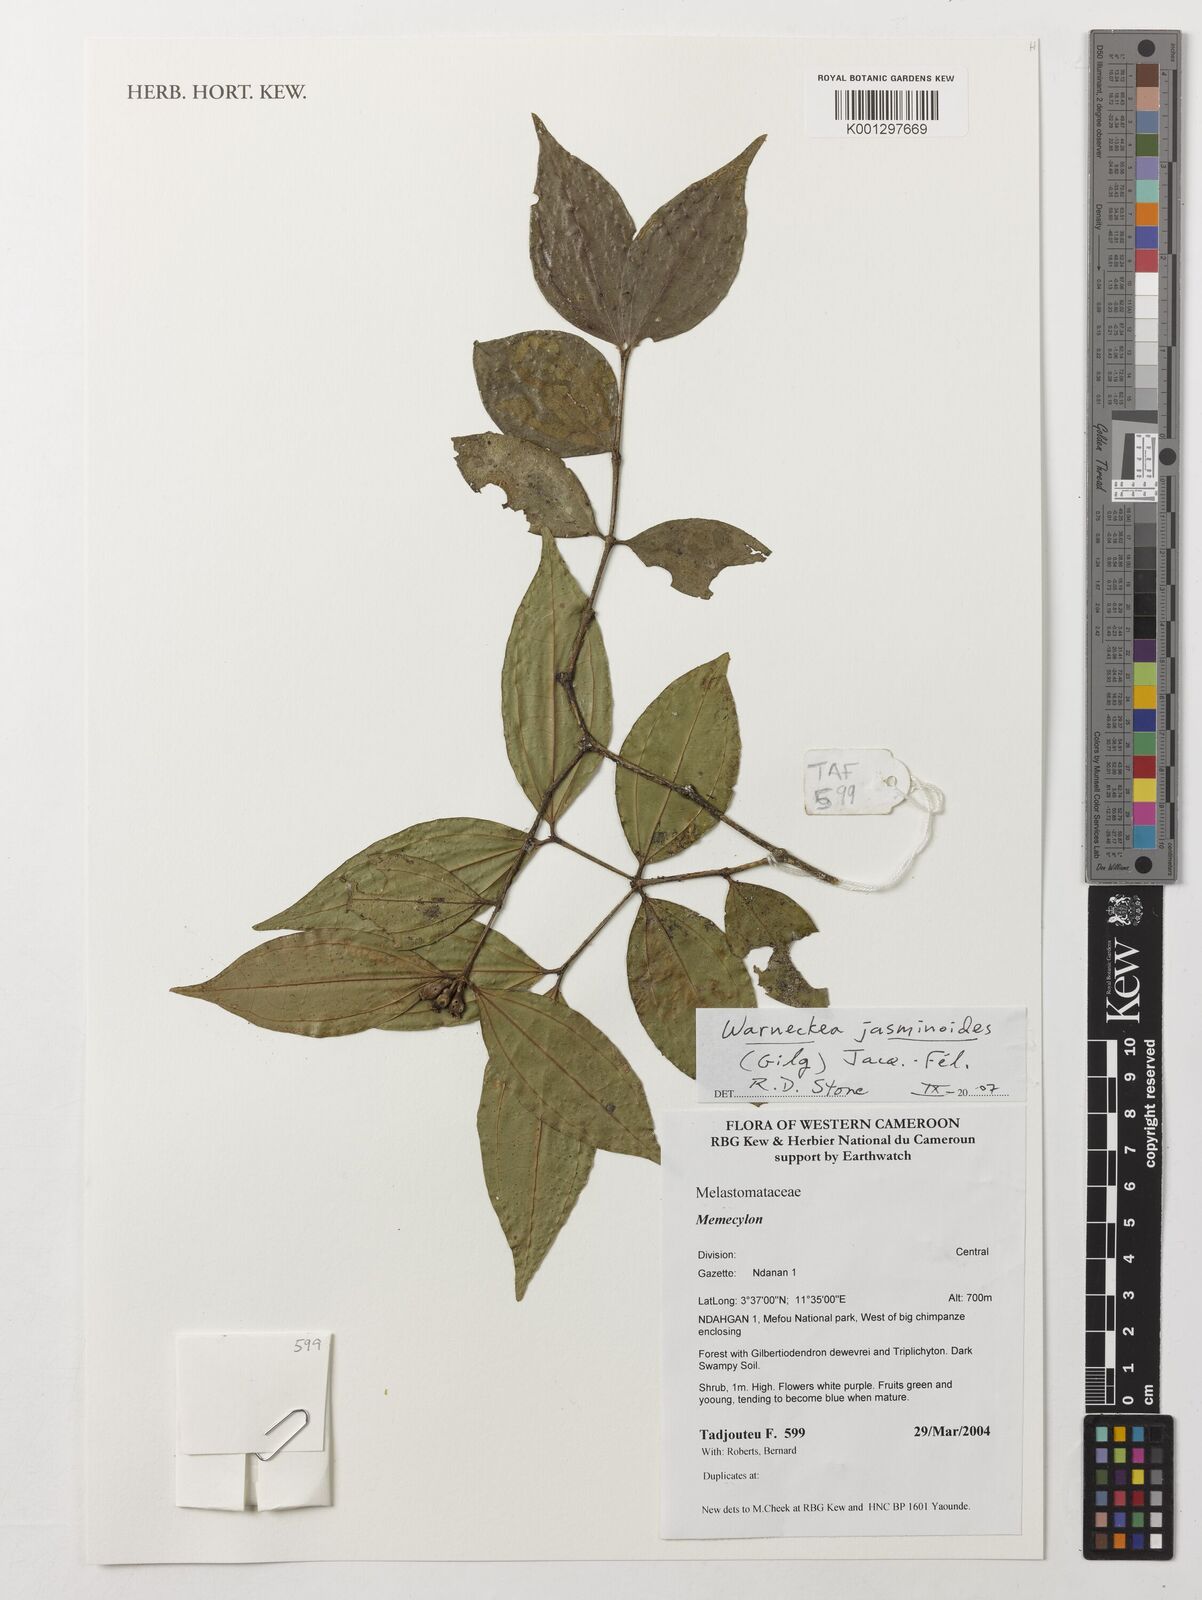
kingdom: Plantae
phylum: Tracheophyta
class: Magnoliopsida
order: Myrtales
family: Melastomataceae
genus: Warneckea
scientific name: Warneckea jasminoides
